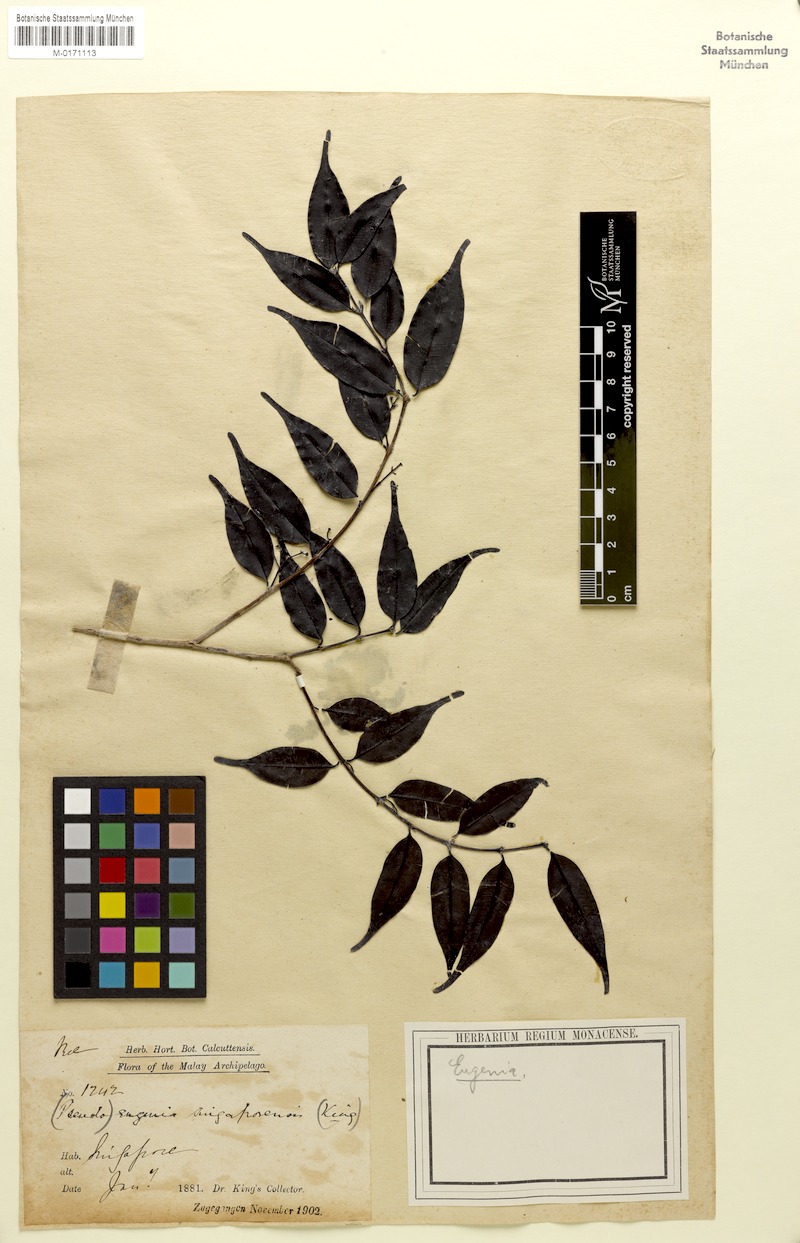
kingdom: Plantae
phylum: Tracheophyta
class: Magnoliopsida
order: Myrtales
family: Myrtaceae
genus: Syzygium
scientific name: Syzygium singaporense
